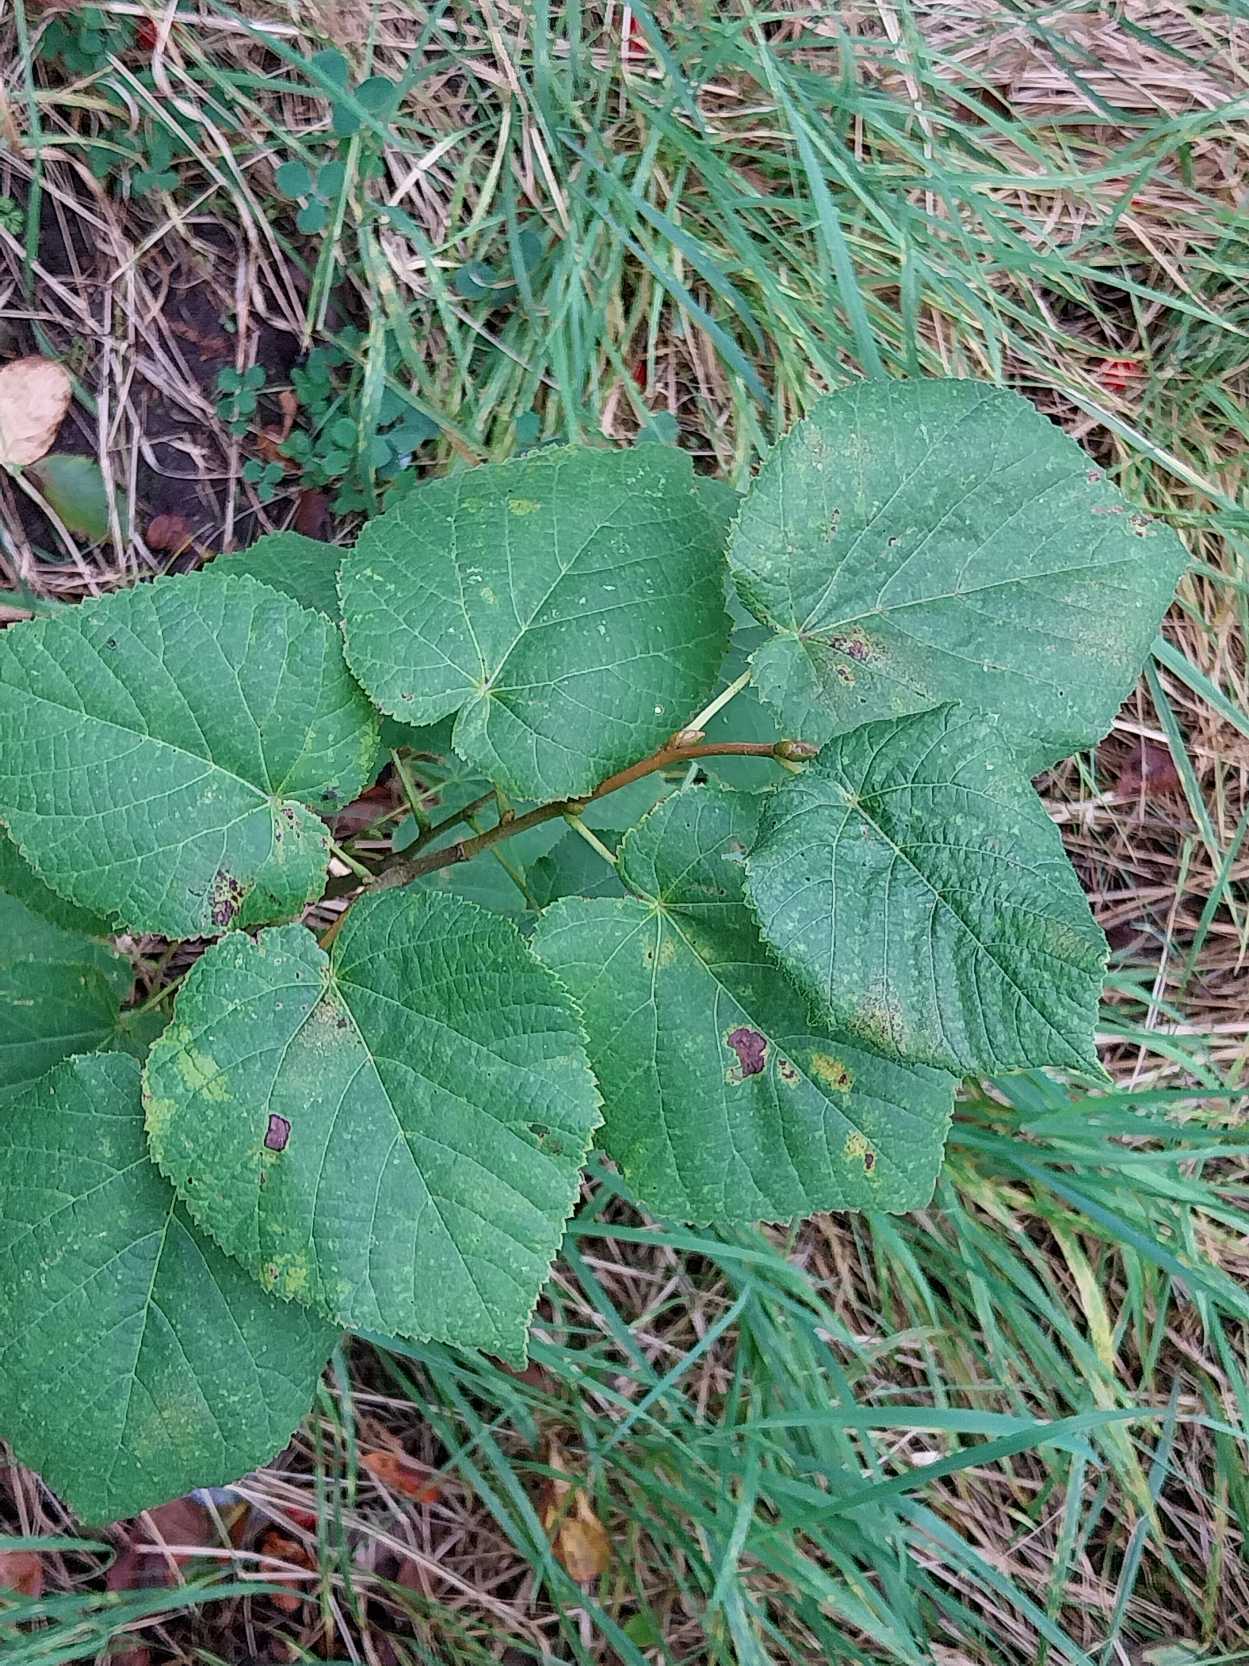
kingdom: Plantae
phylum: Tracheophyta
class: Magnoliopsida
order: Malvales
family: Malvaceae
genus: Tilia
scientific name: Tilia platyphyllos
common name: Storbladet lind
